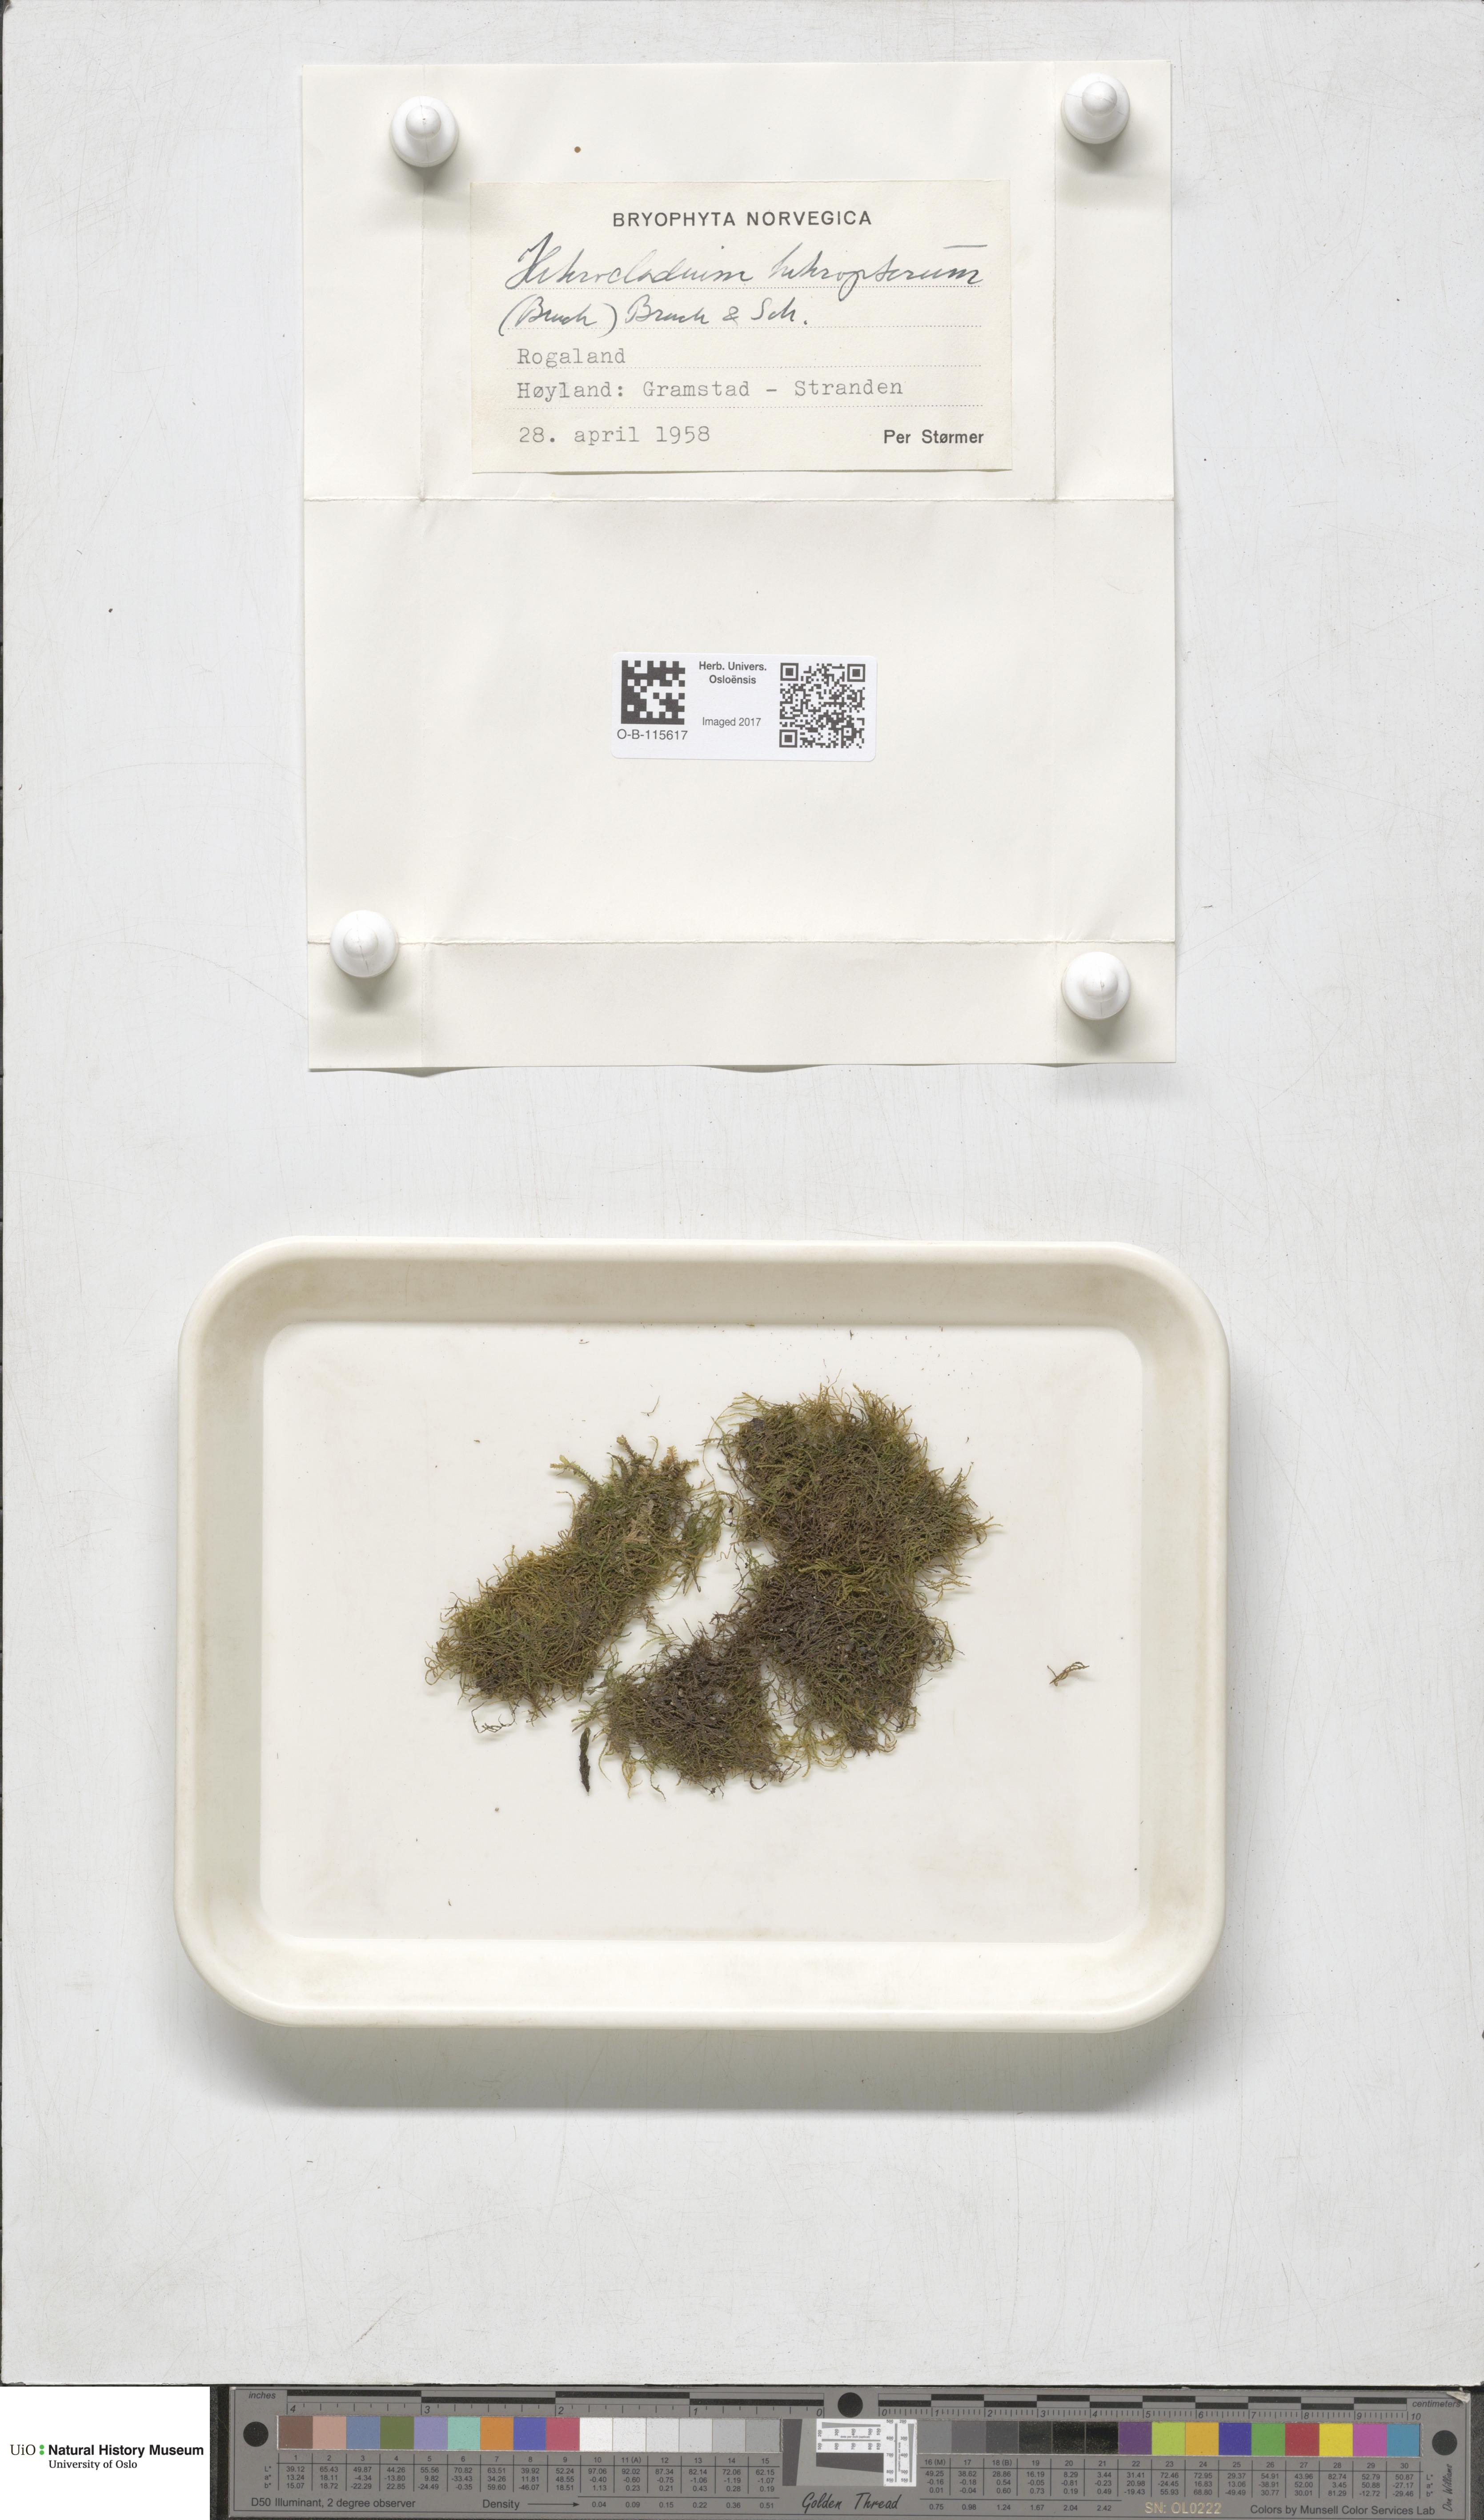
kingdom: Plantae
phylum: Bryophyta
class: Bryopsida
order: Hypnales
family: Lembophyllaceae
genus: Heterocladium
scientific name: Heterocladium heteropterum
